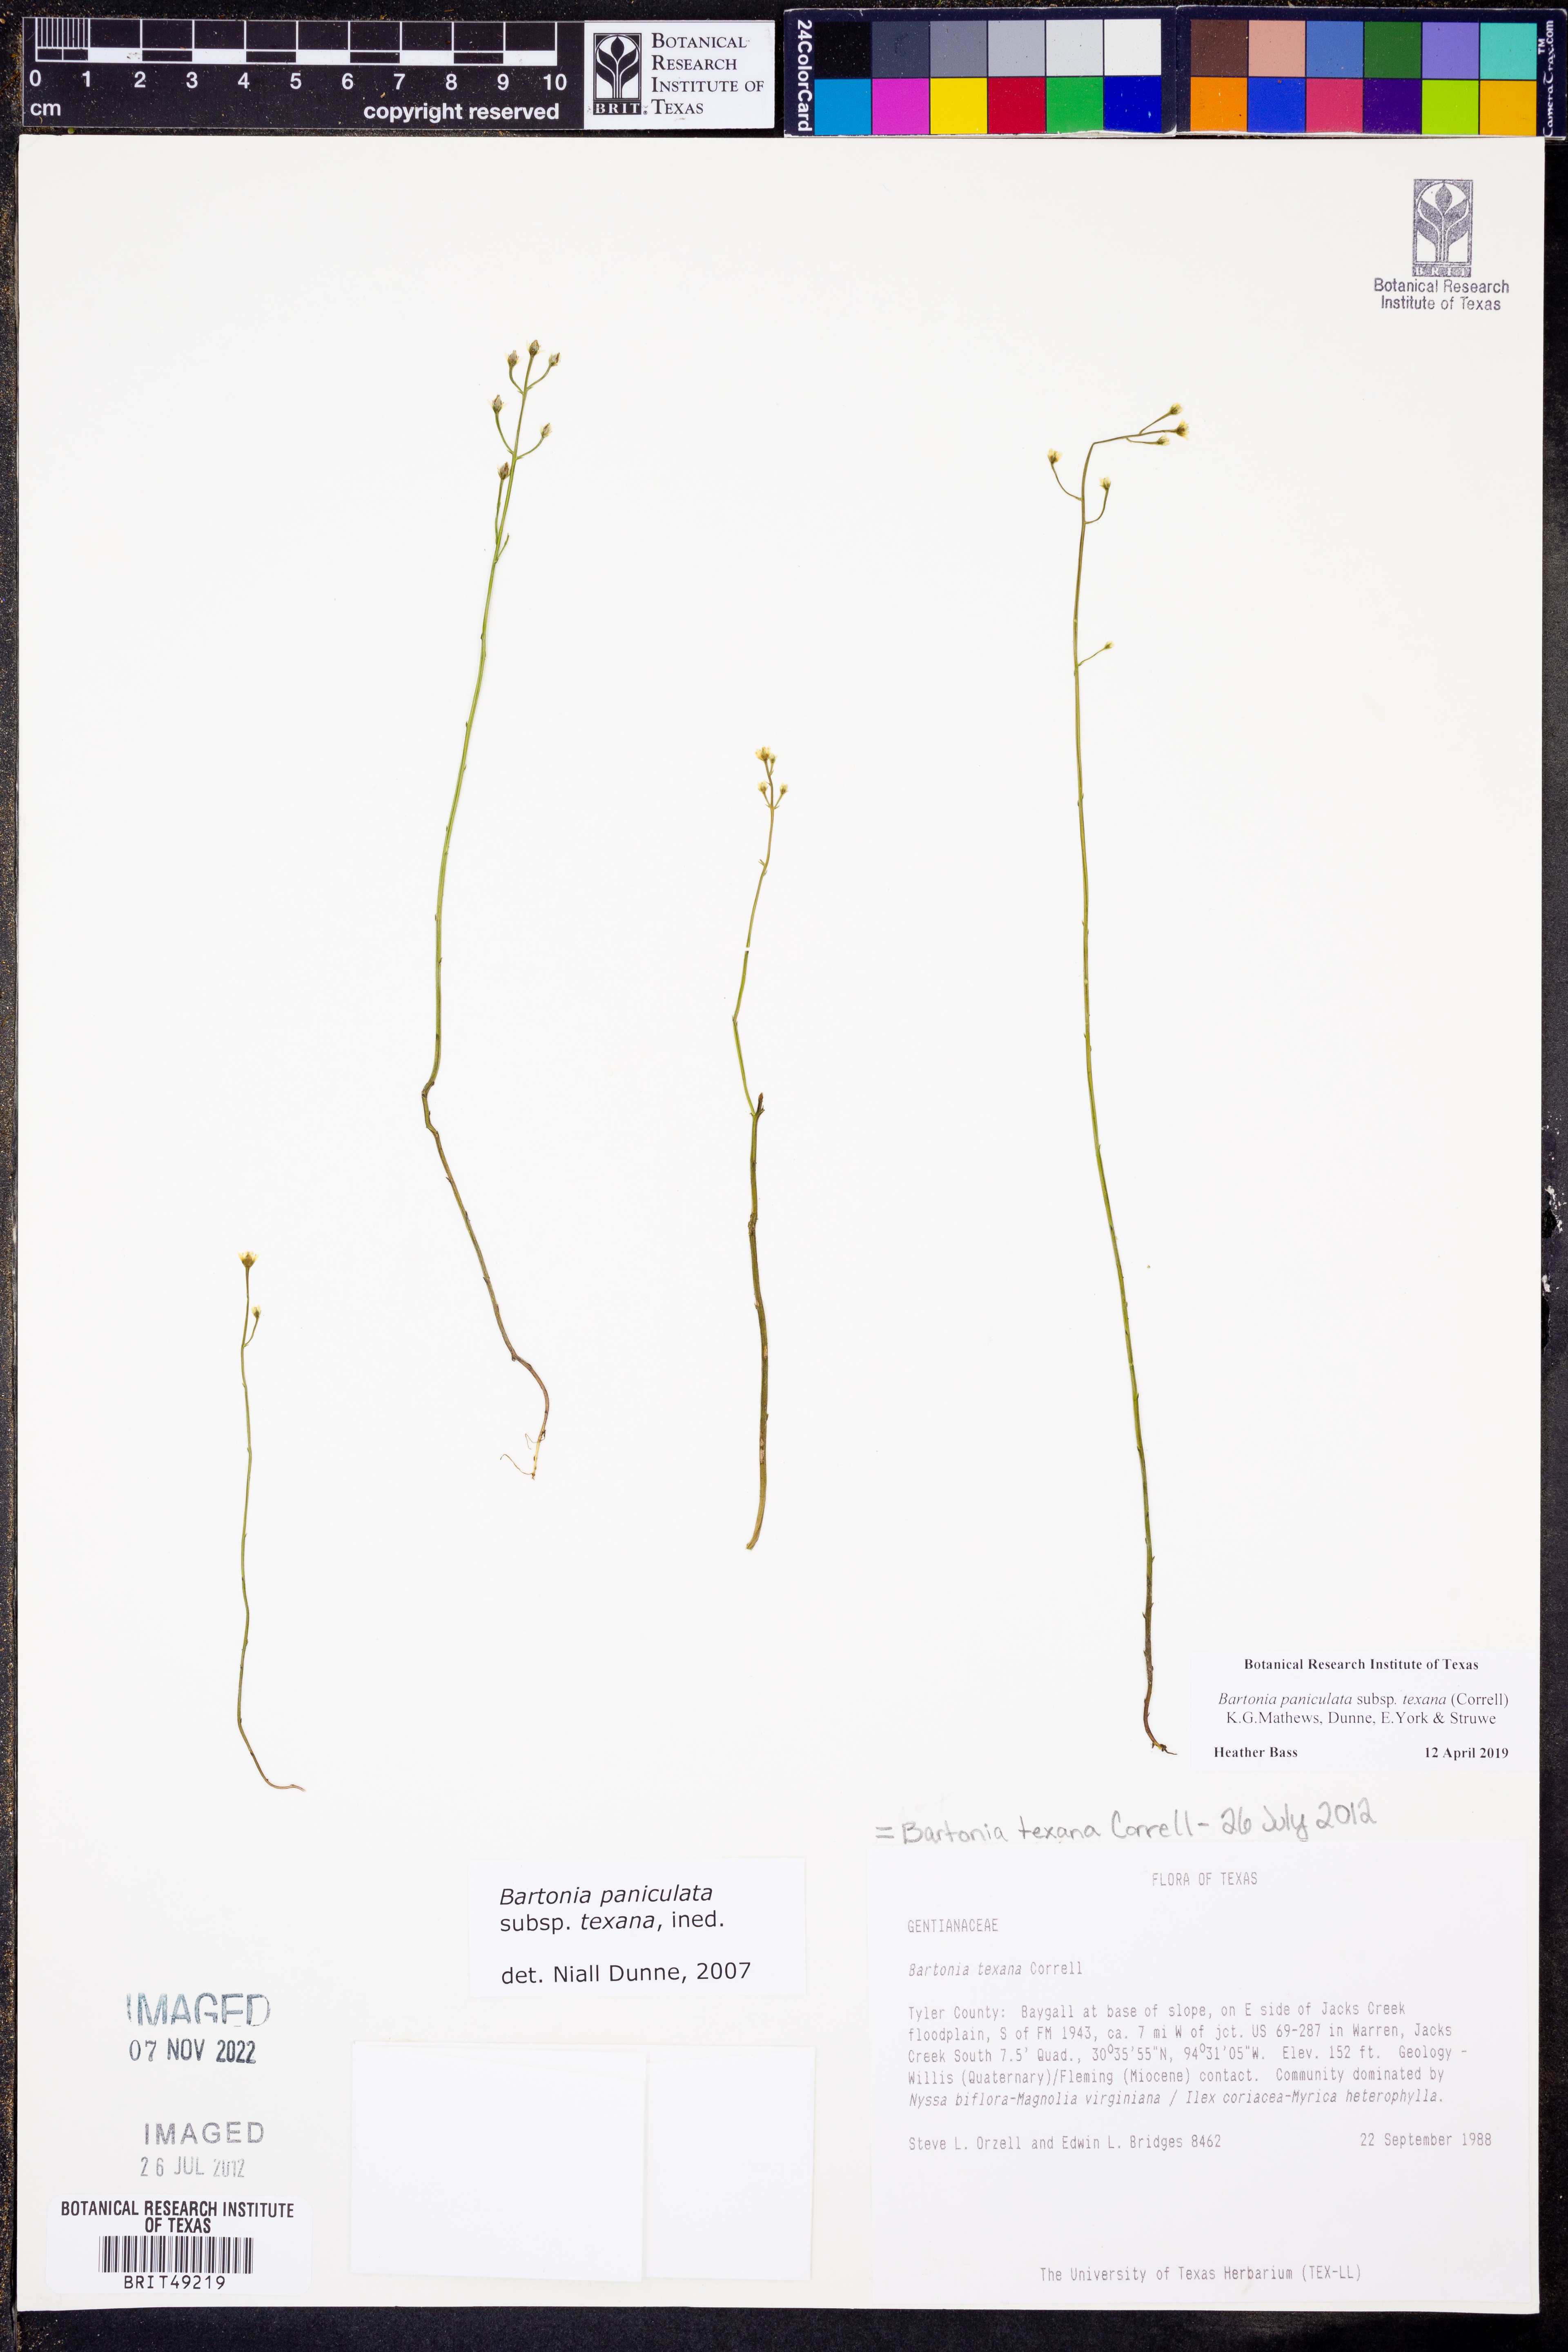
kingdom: Plantae
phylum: Tracheophyta
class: Magnoliopsida
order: Gentianales
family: Gentianaceae
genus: Bartonia
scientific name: Bartonia paniculata
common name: Branched bartonia
